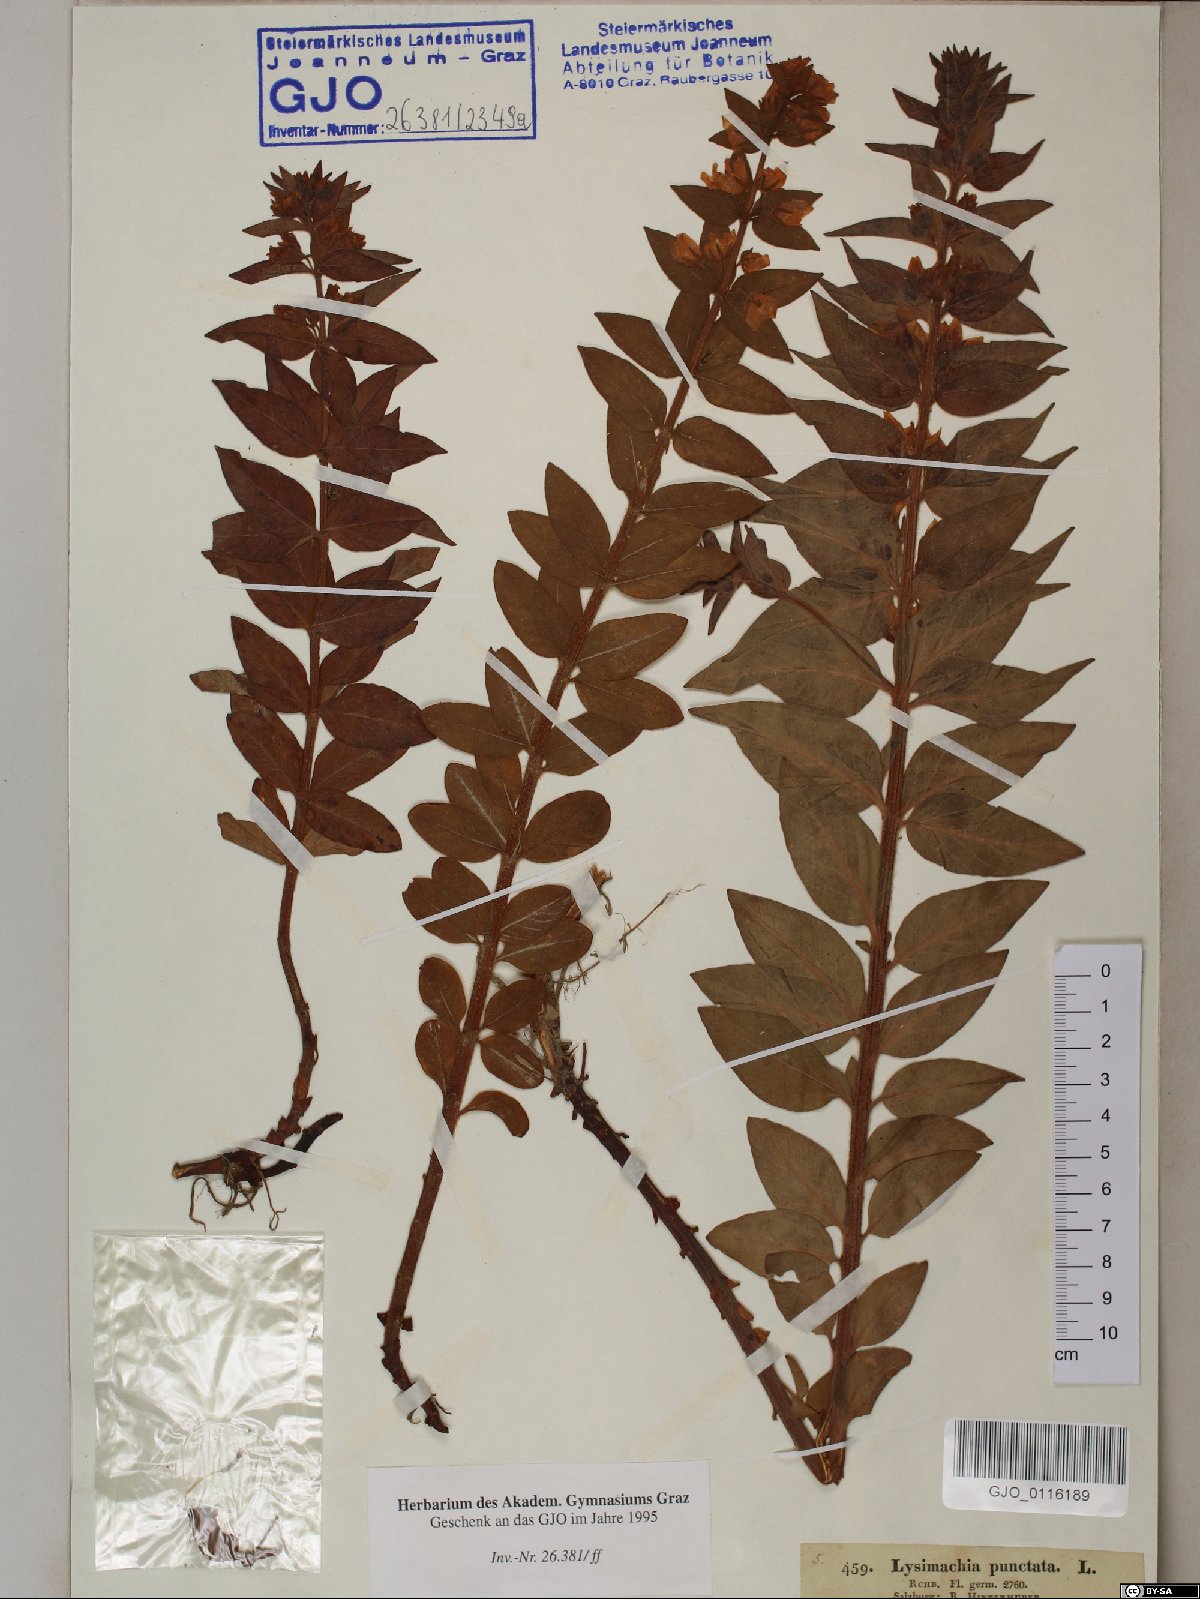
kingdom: Plantae
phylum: Tracheophyta
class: Magnoliopsida
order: Ericales
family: Primulaceae
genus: Lysimachia
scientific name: Lysimachia punctata
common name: Dotted loosestrife
